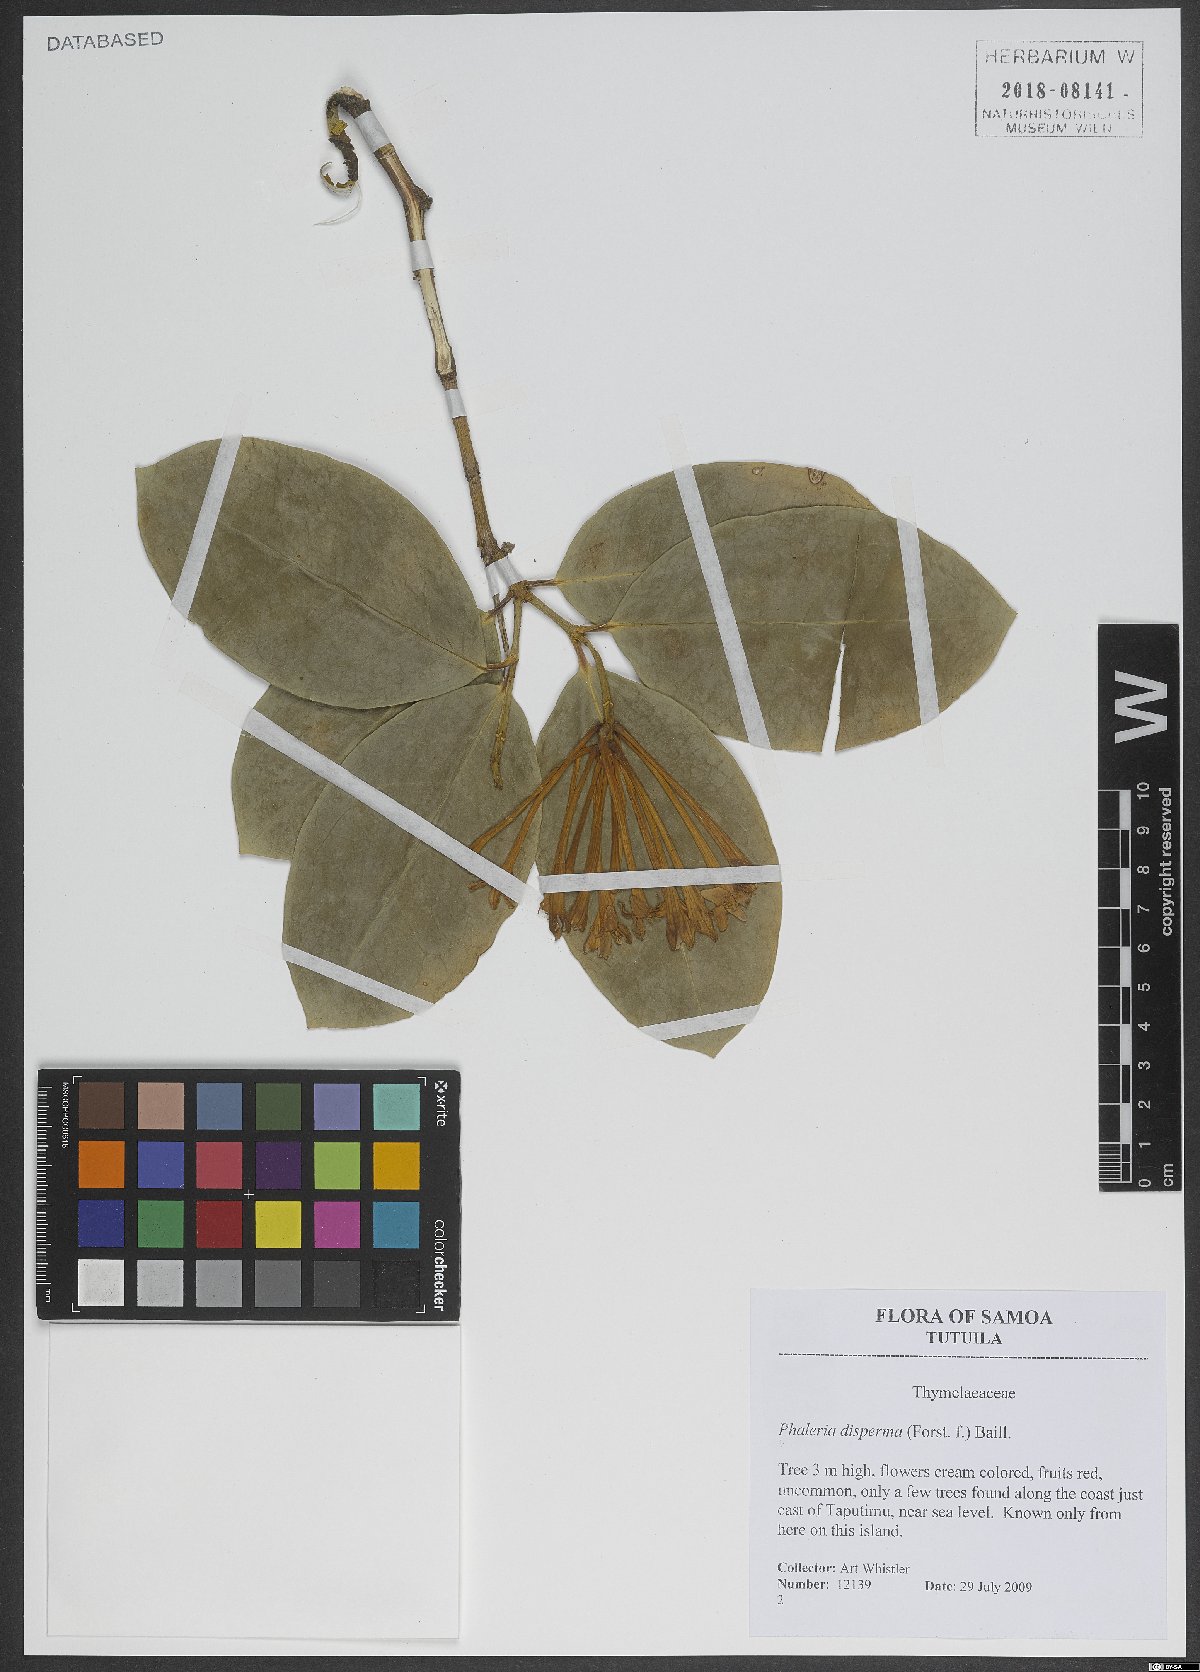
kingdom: Plantae
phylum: Tracheophyta
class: Magnoliopsida
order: Malvales
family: Thymelaeaceae
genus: Phaleria
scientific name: Phaleria disperma
